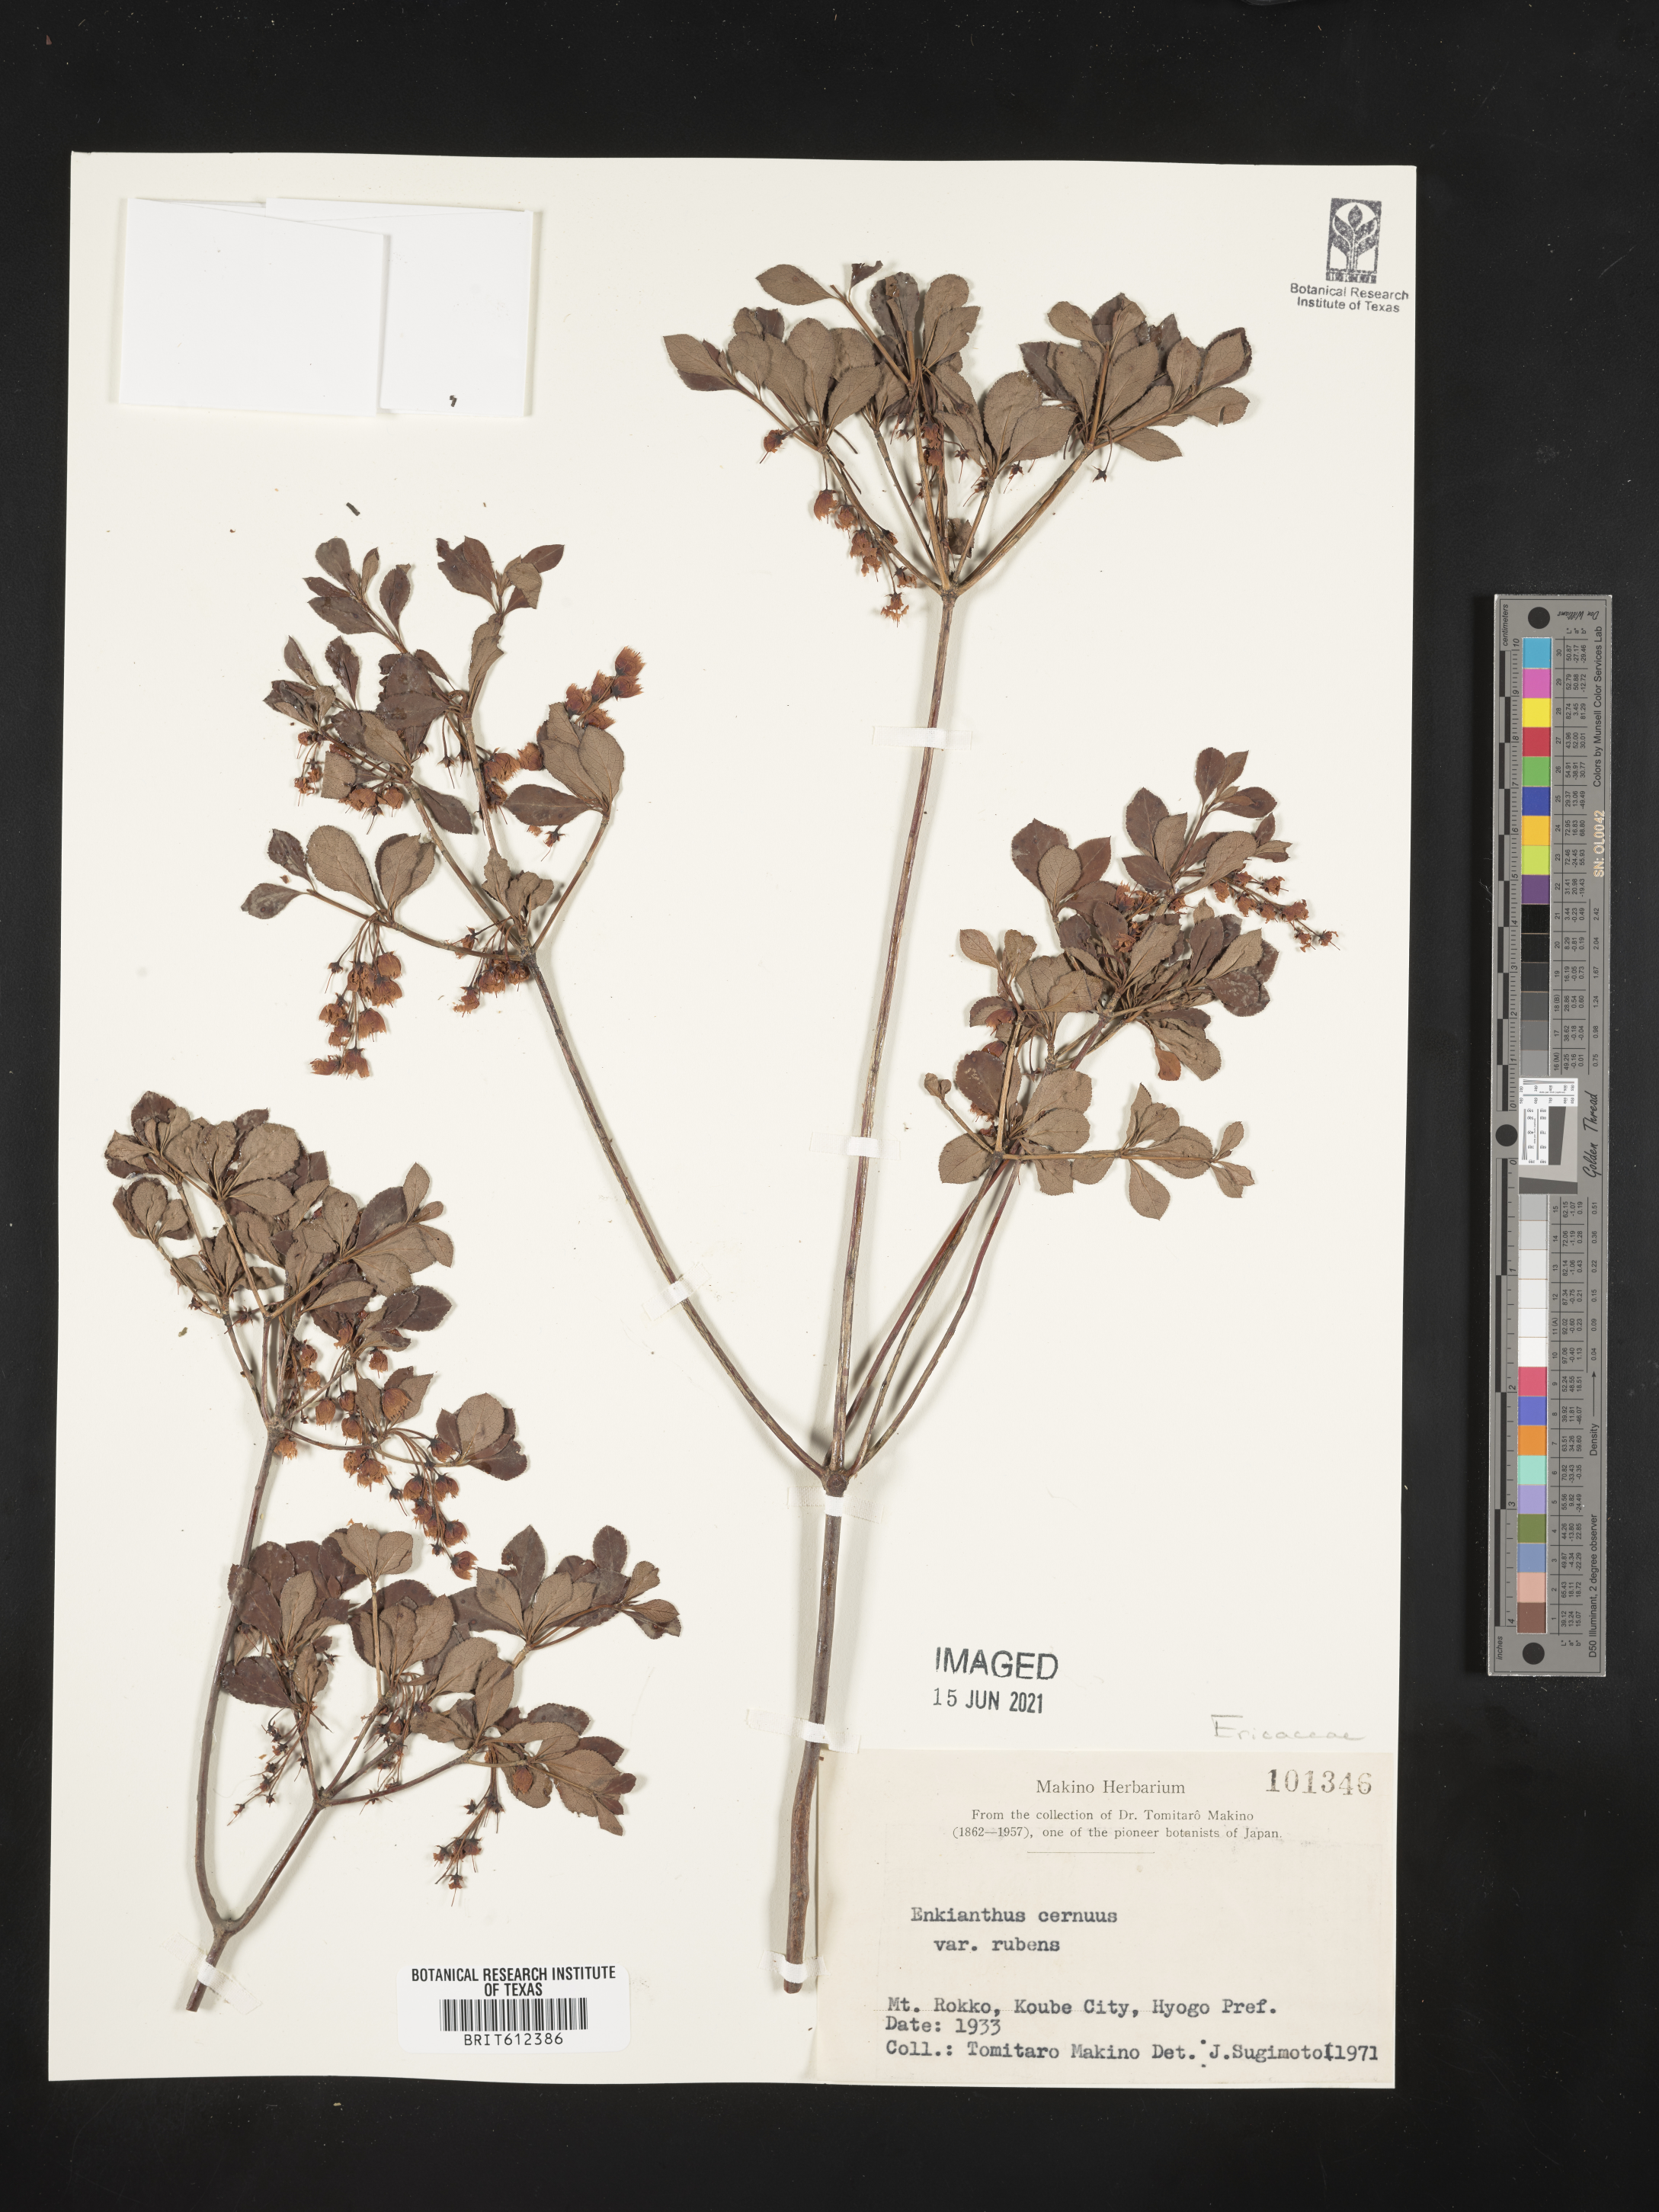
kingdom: Plantae
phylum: Tracheophyta
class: Magnoliopsida
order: Ericales
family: Ericaceae
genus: Enkianthus
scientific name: Enkianthus cernuus
